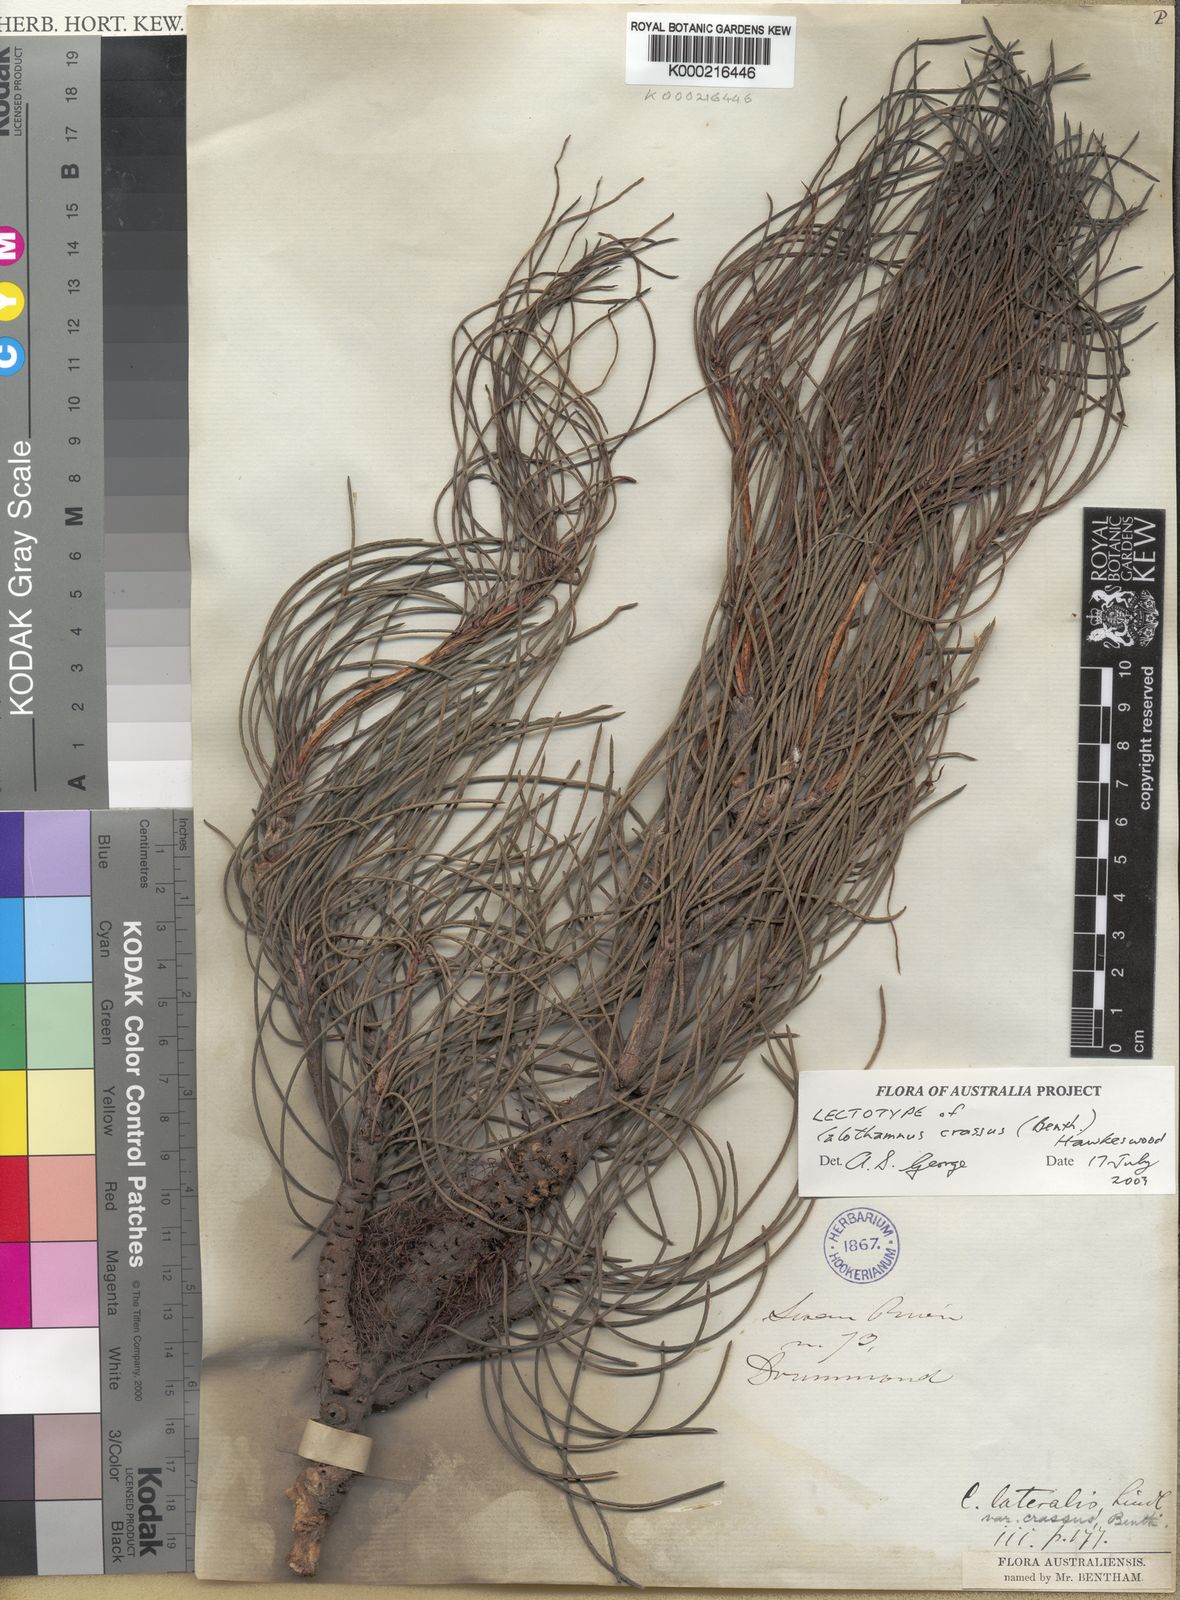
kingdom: Plantae
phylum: Tracheophyta
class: Magnoliopsida
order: Myrtales
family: Myrtaceae
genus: Melaleuca
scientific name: Melaleuca alilateralis
